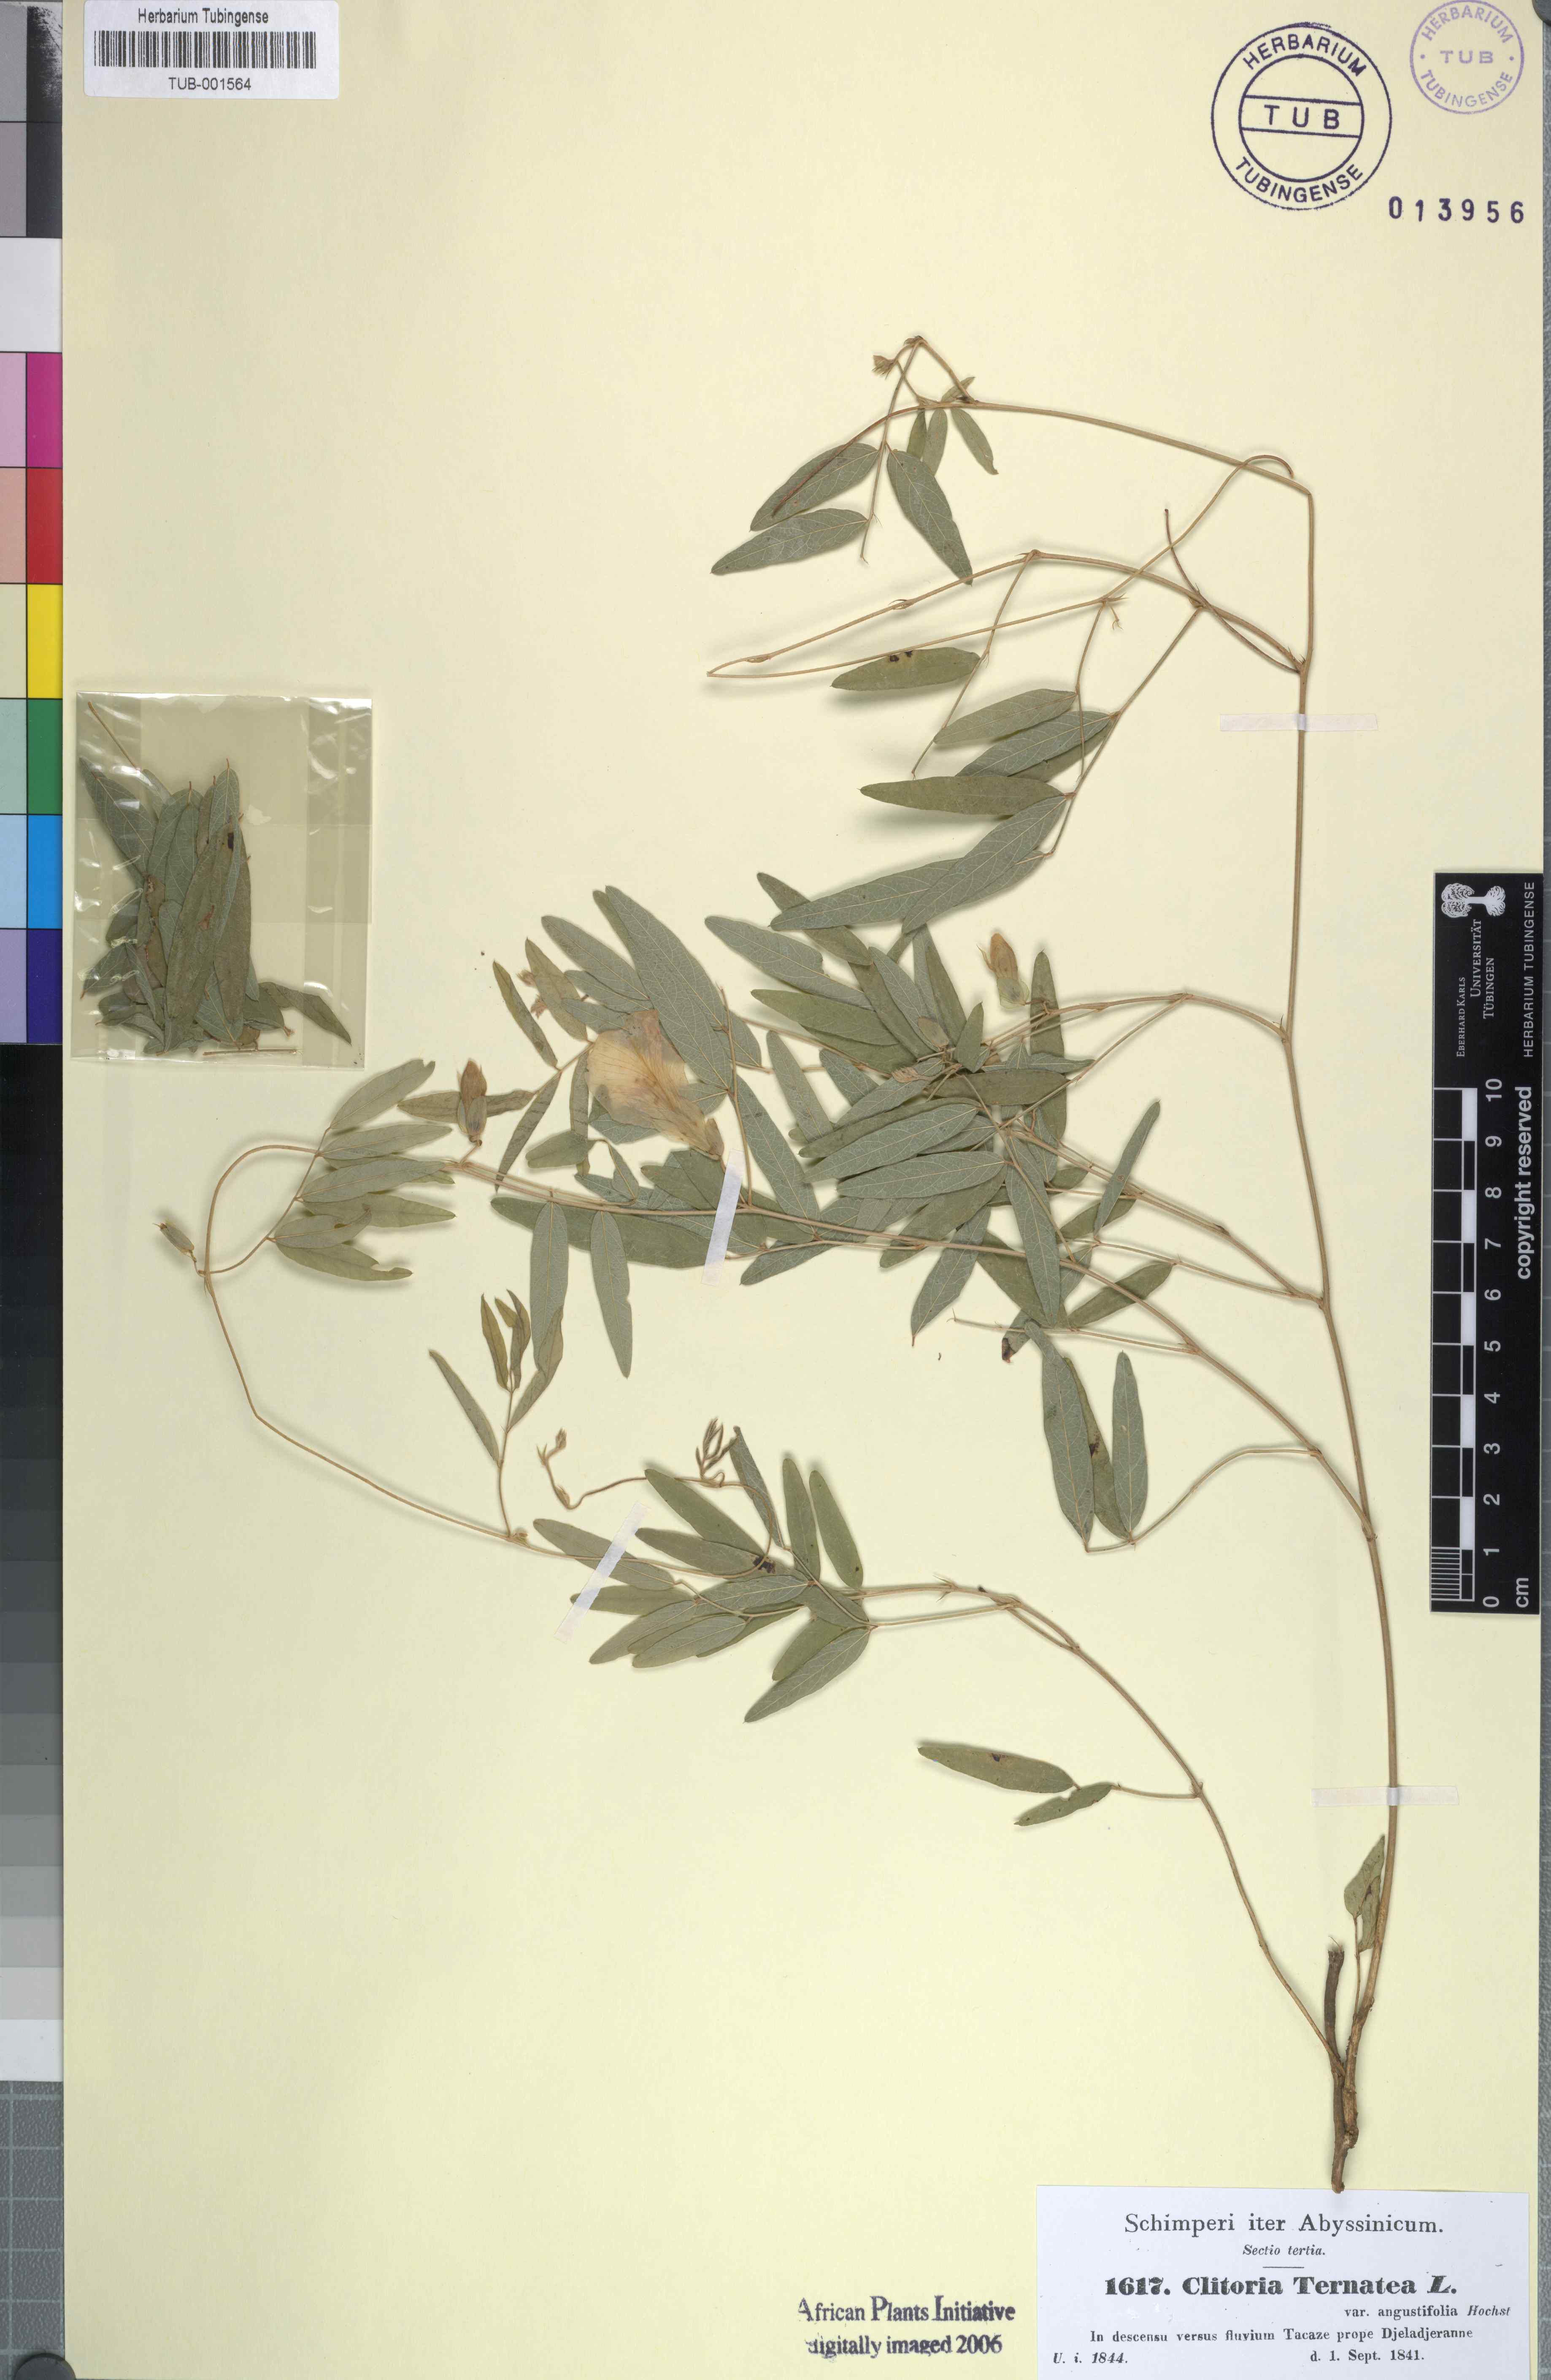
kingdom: Plantae
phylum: Tracheophyta
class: Magnoliopsida
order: Fabales
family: Fabaceae
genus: Clitoria
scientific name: Clitoria ternatea
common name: Asian pigeonwings
